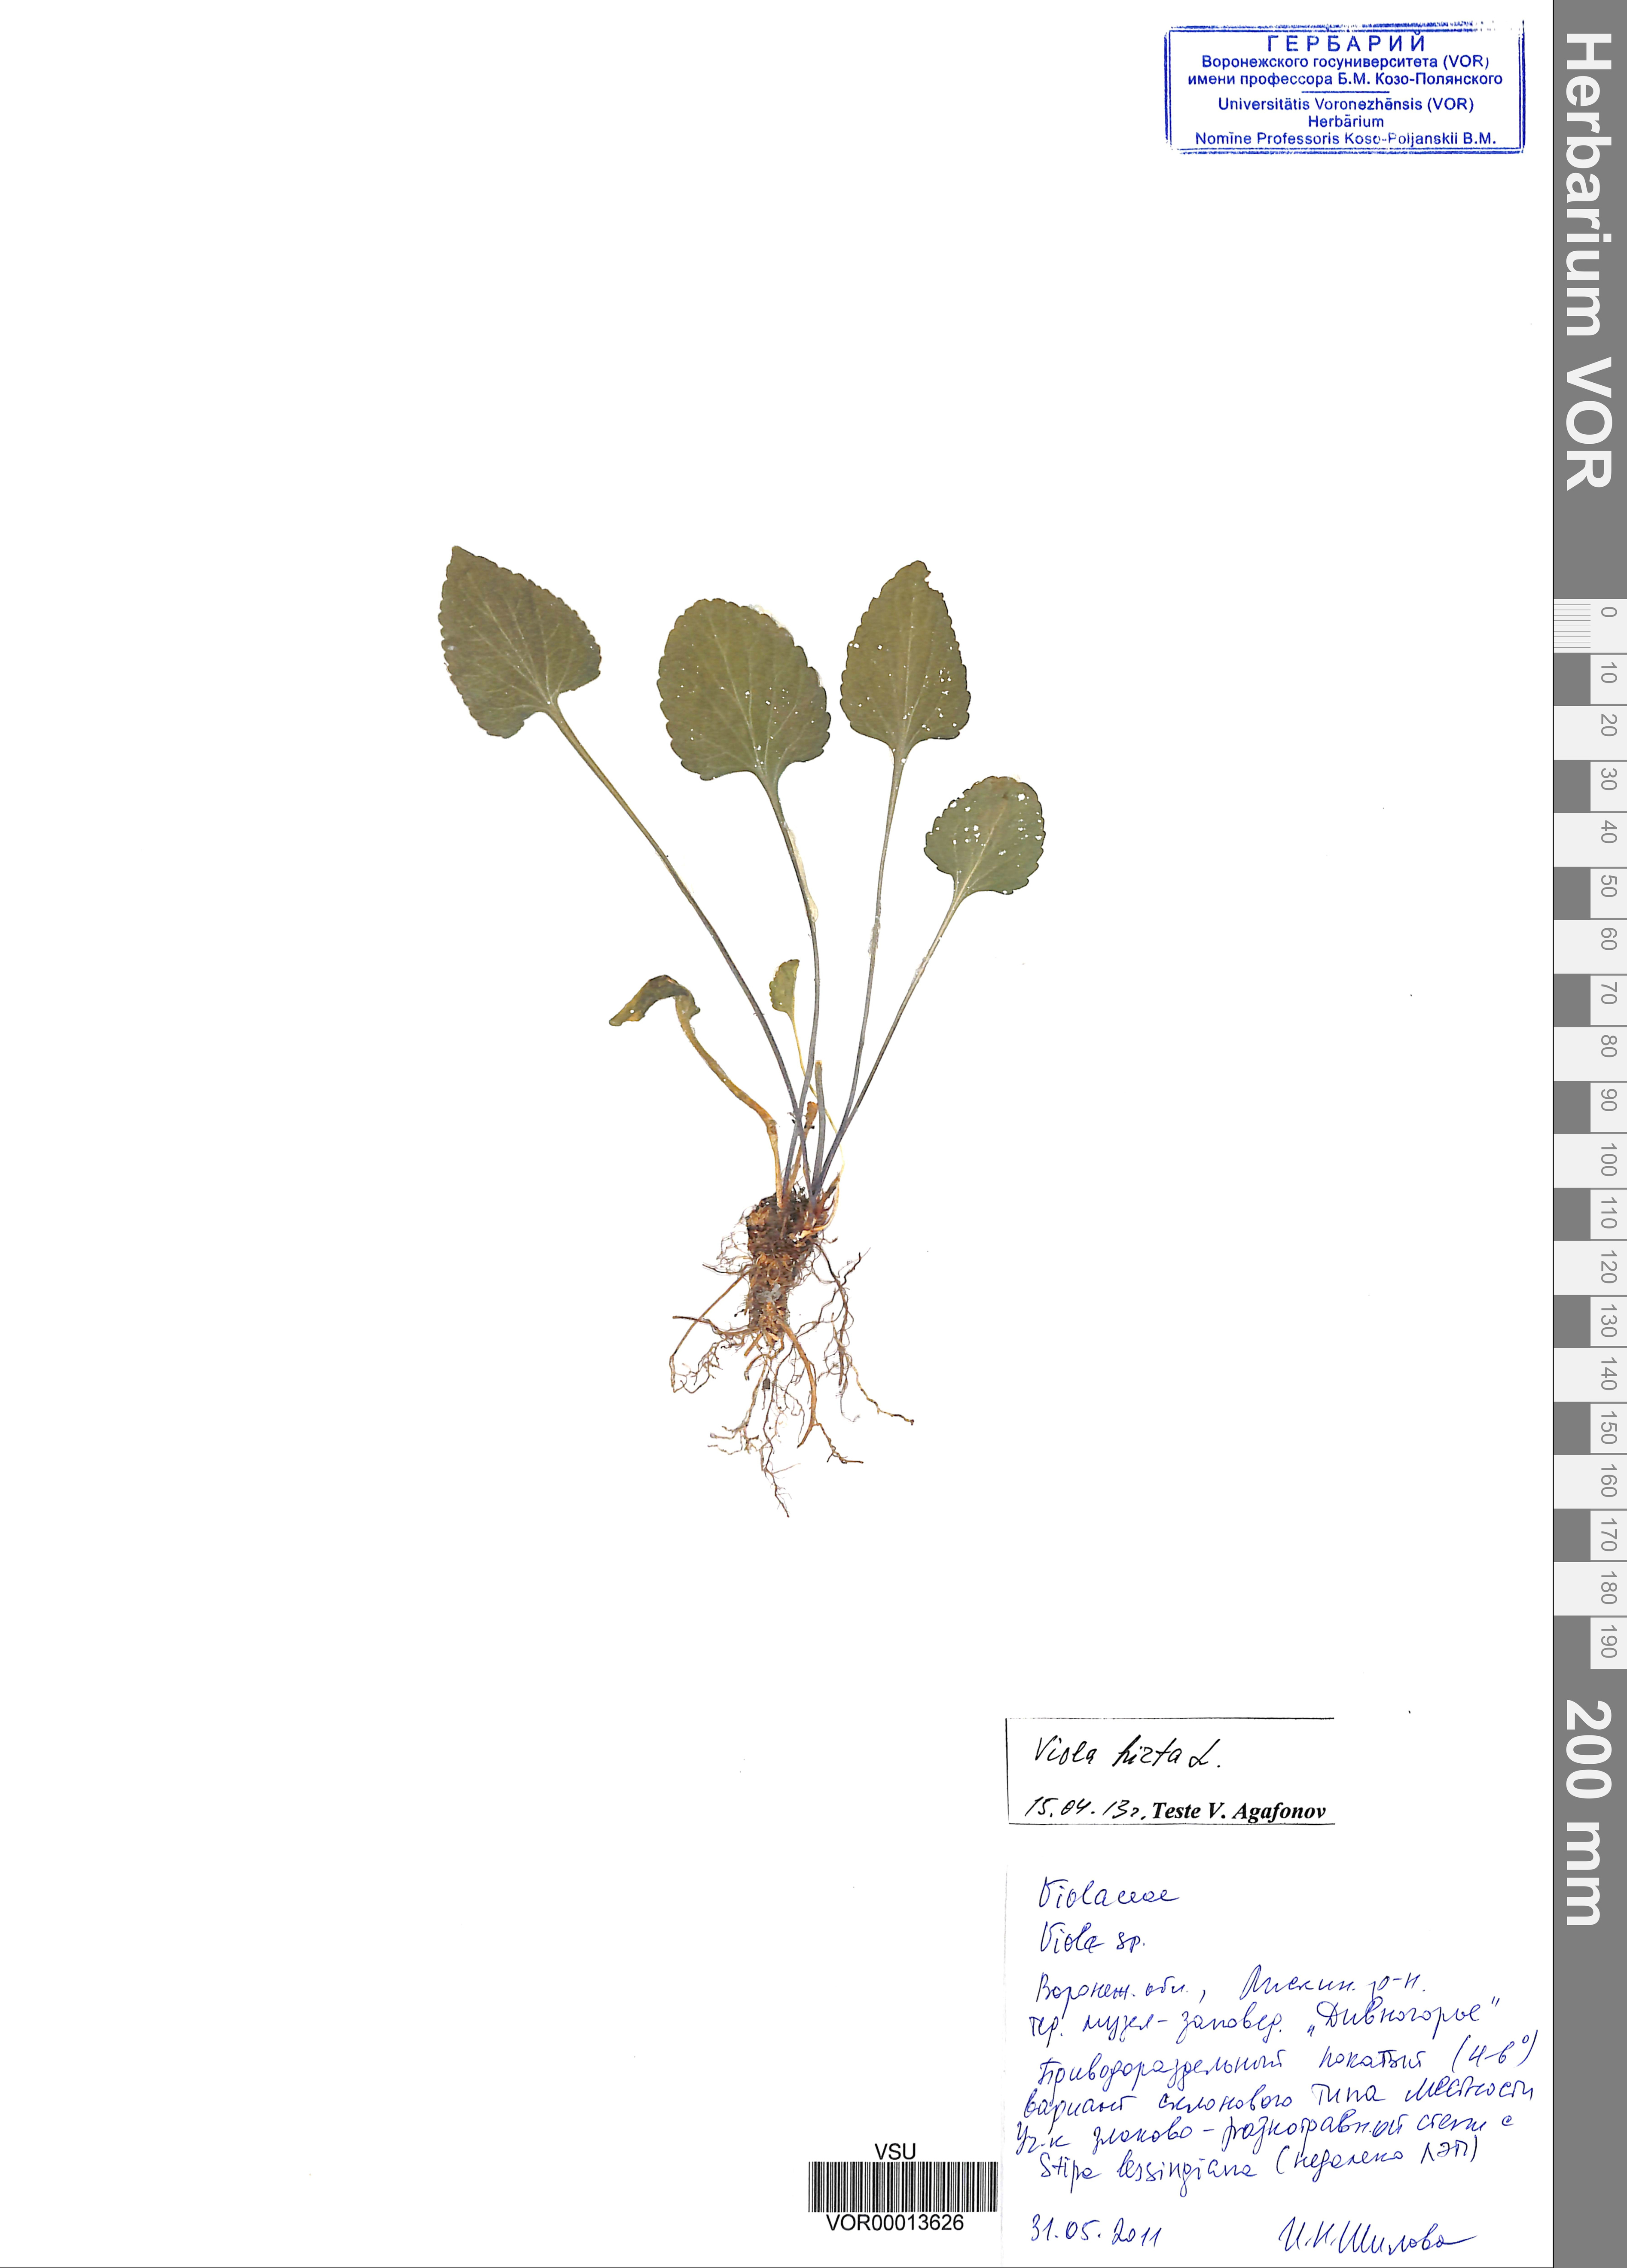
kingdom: Plantae
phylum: Tracheophyta
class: Magnoliopsida
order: Malpighiales
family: Violaceae
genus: Viola
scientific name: Viola hirta
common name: Hairy violet
